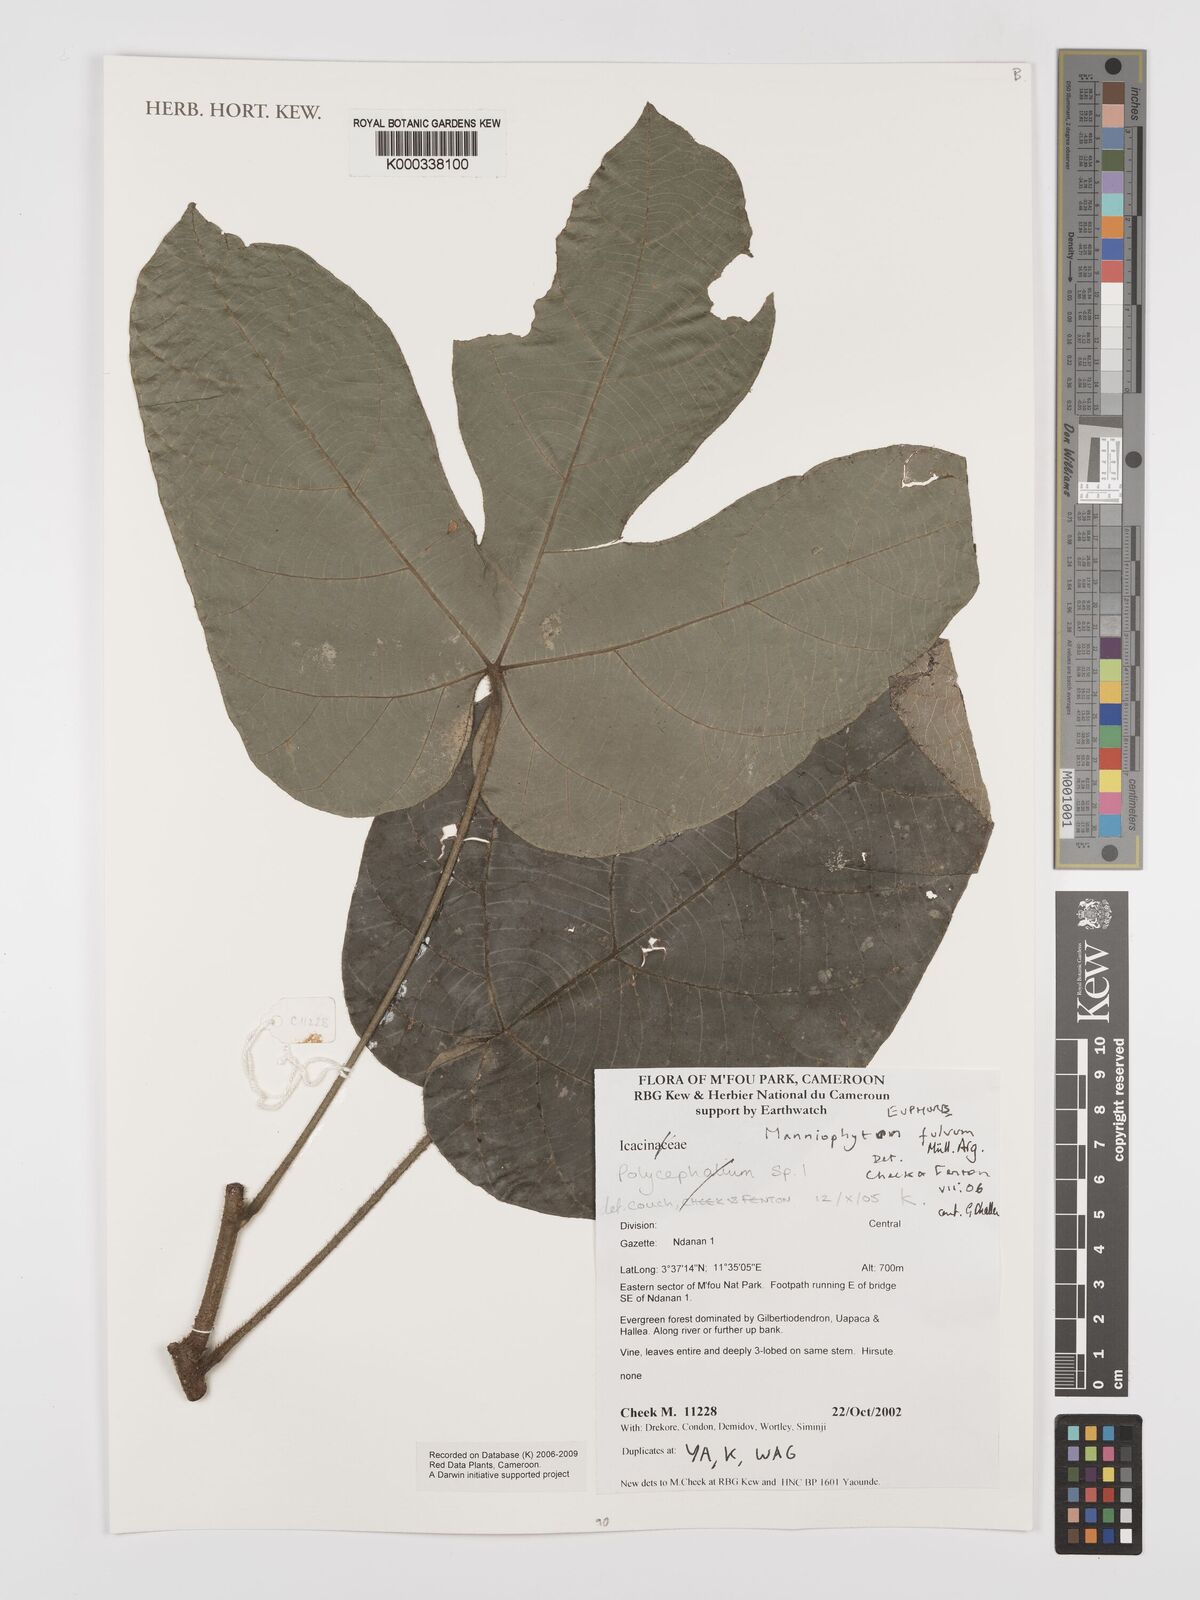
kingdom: Plantae
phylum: Tracheophyta
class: Magnoliopsida
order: Malpighiales
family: Euphorbiaceae
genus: Manniophyton
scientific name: Manniophyton
